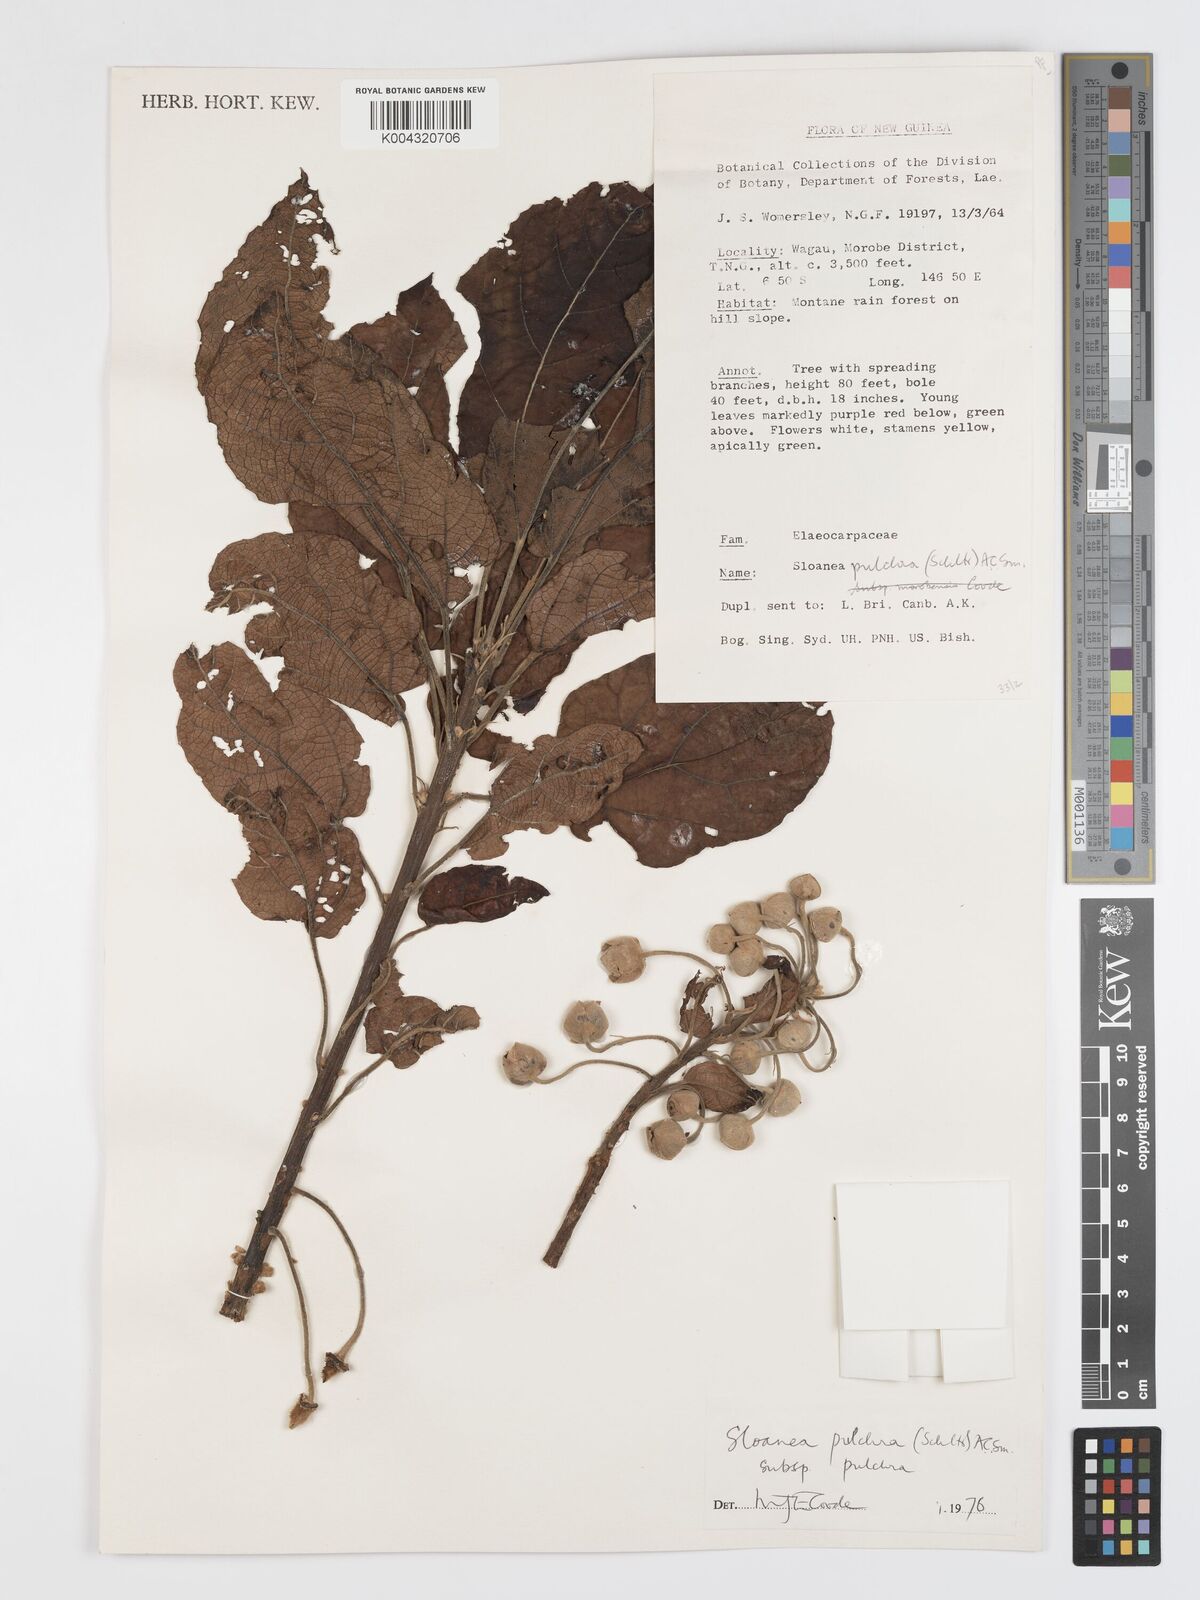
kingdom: Plantae
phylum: Tracheophyta
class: Magnoliopsida
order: Oxalidales
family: Elaeocarpaceae
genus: Sloanea
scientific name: Sloanea pulchra
